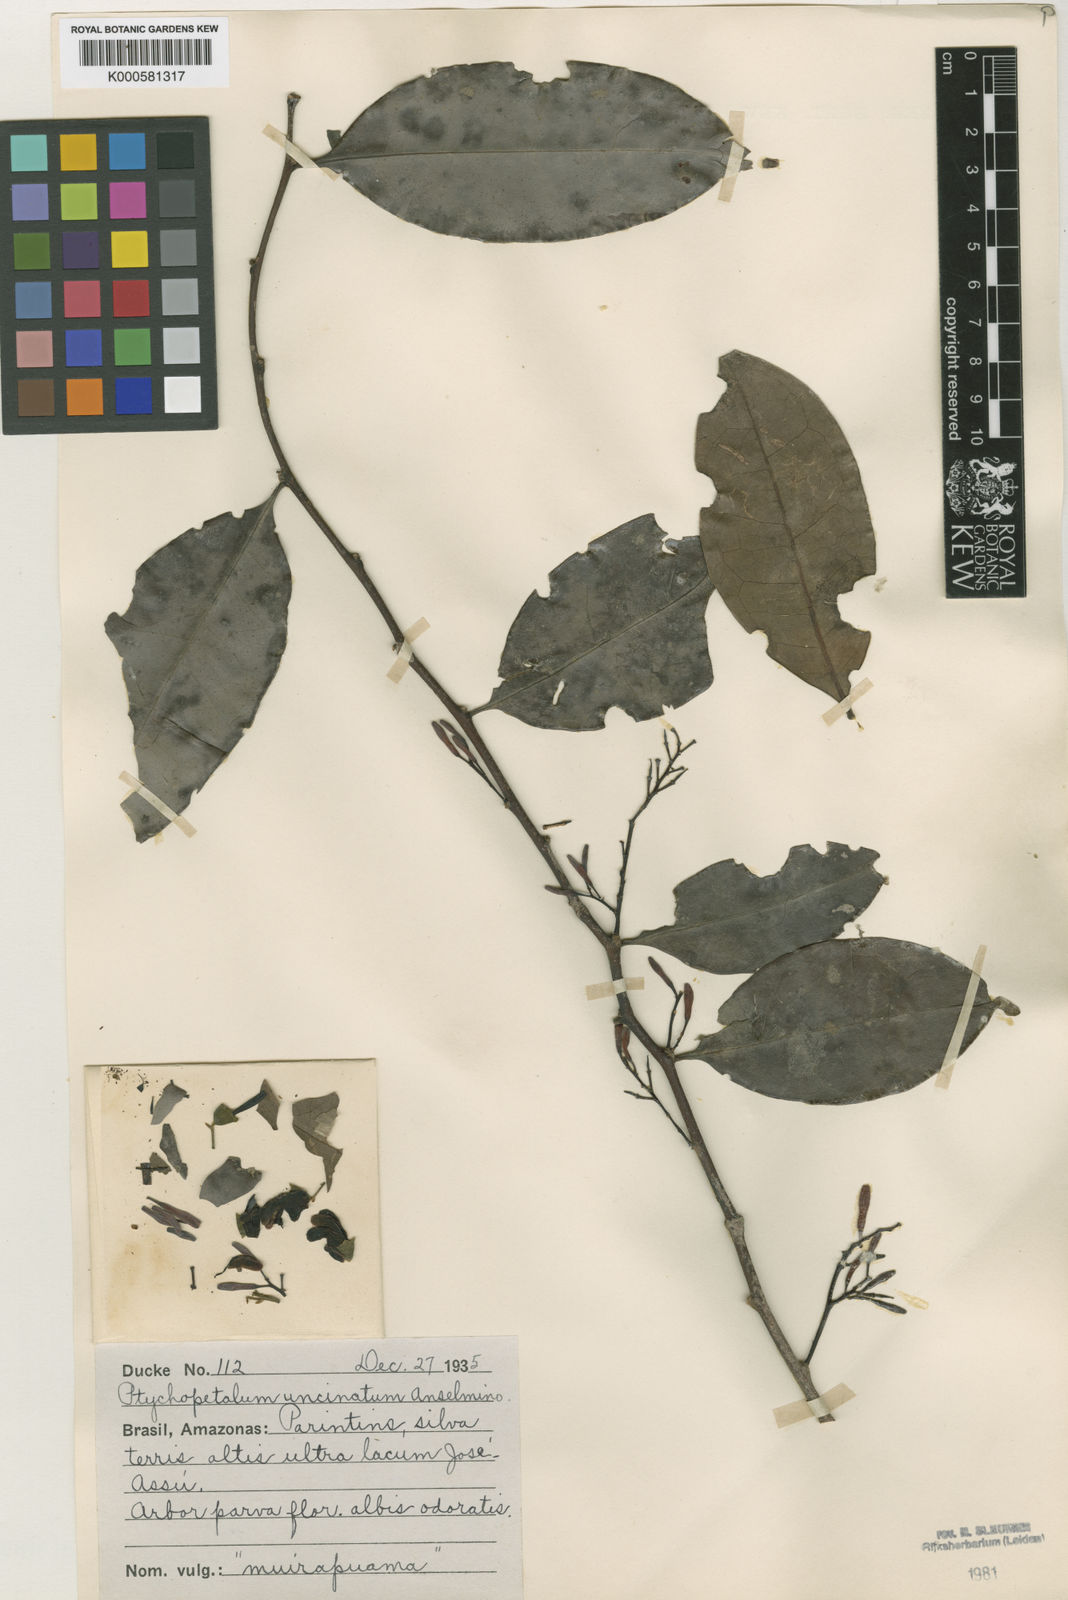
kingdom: Plantae
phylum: Tracheophyta
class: Magnoliopsida
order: Santalales
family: Olacaceae
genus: Ptychopetalum
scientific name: Ptychopetalum uncinatum
